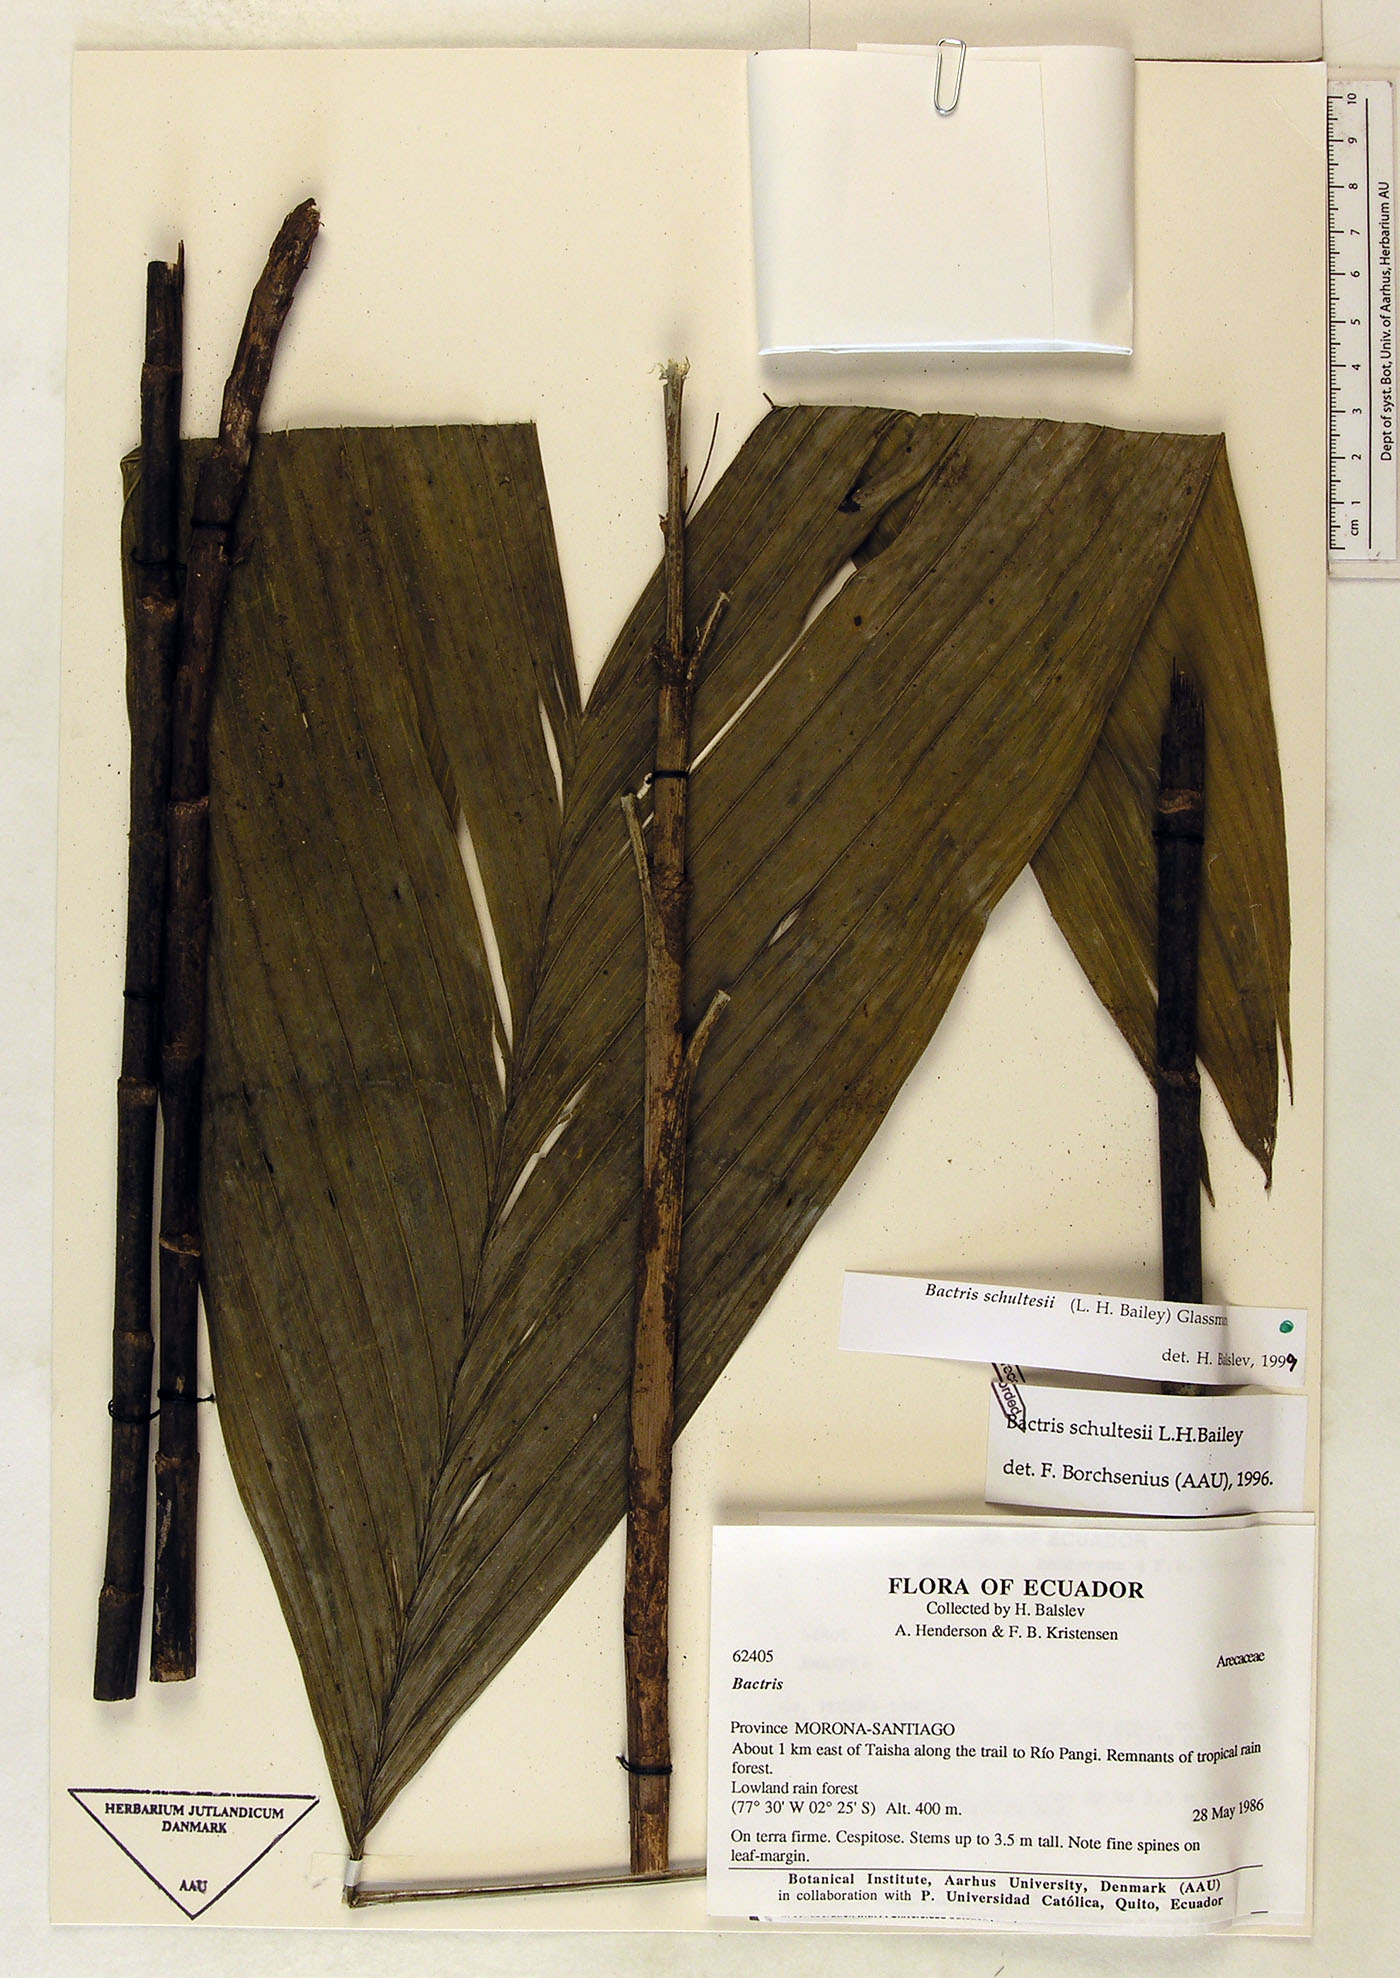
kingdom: Plantae
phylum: Tracheophyta
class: Liliopsida
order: Arecales
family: Arecaceae
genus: Bactris
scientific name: Bactris schultesii
